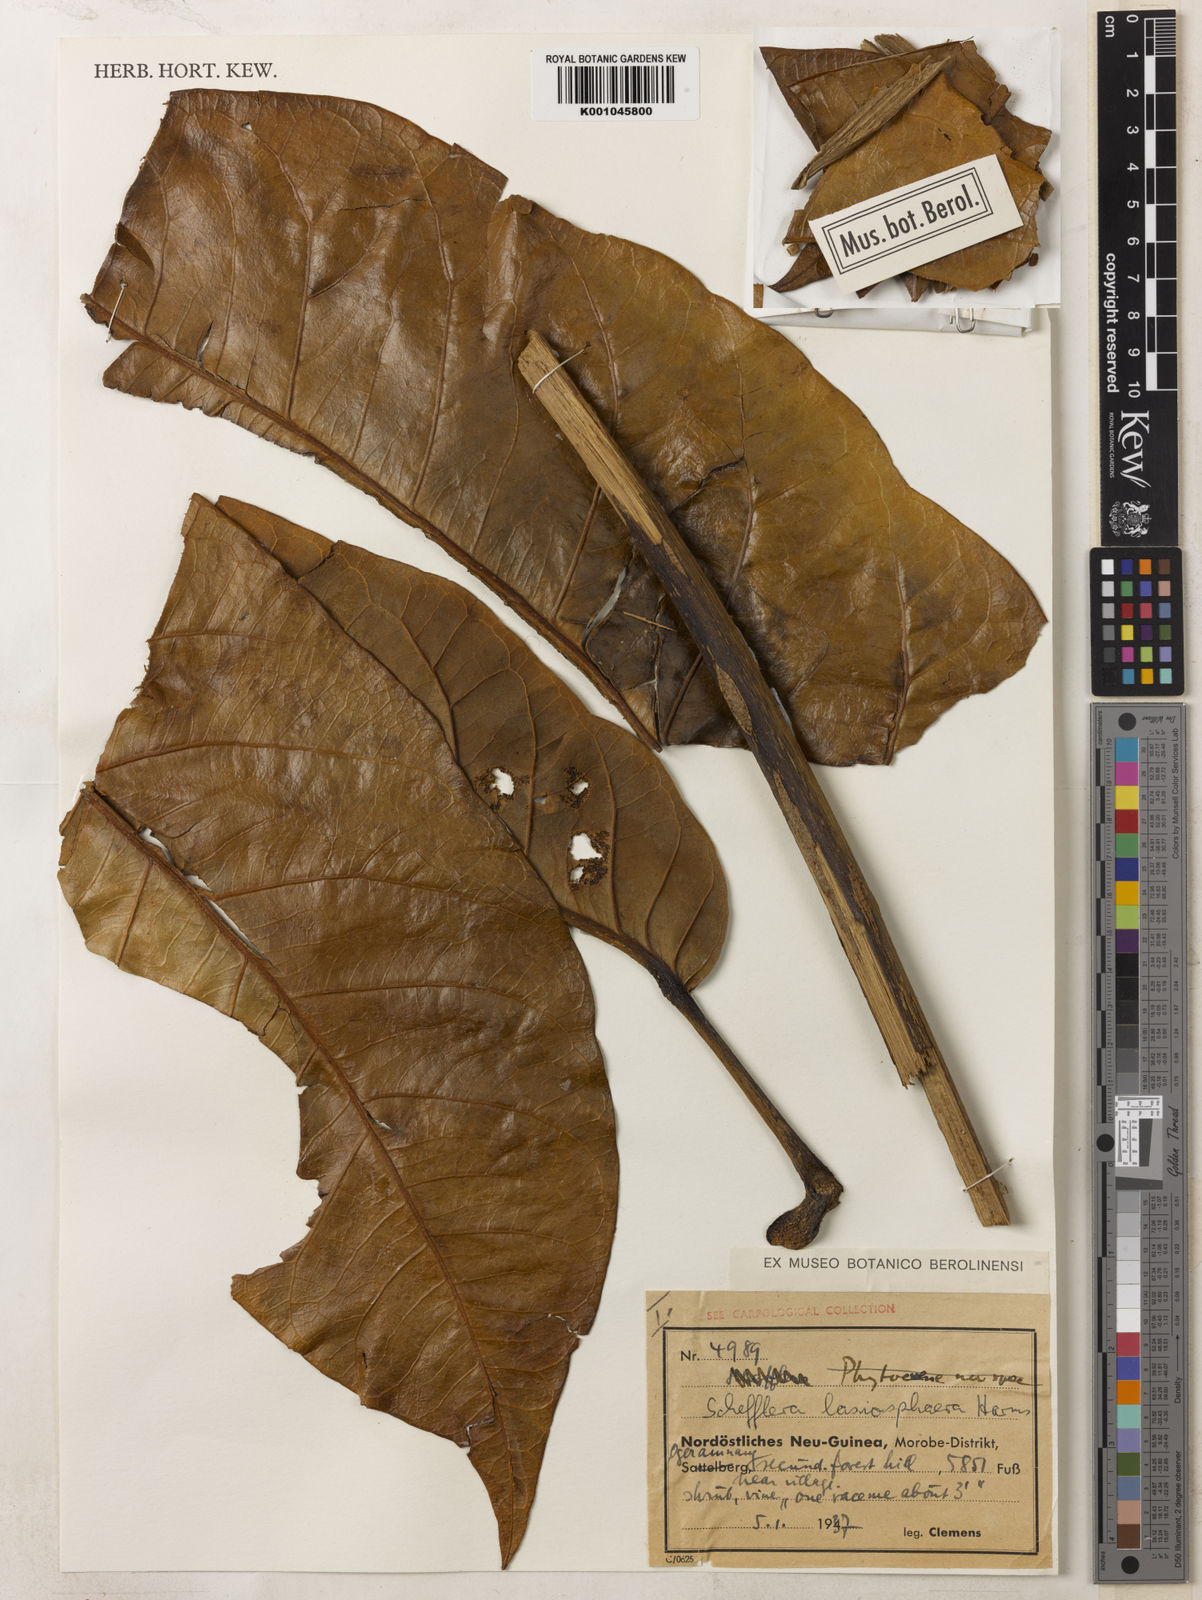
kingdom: Plantae
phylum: Tracheophyta
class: Magnoliopsida
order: Apiales
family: Araliaceae
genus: Schefflera
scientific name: Schefflera
